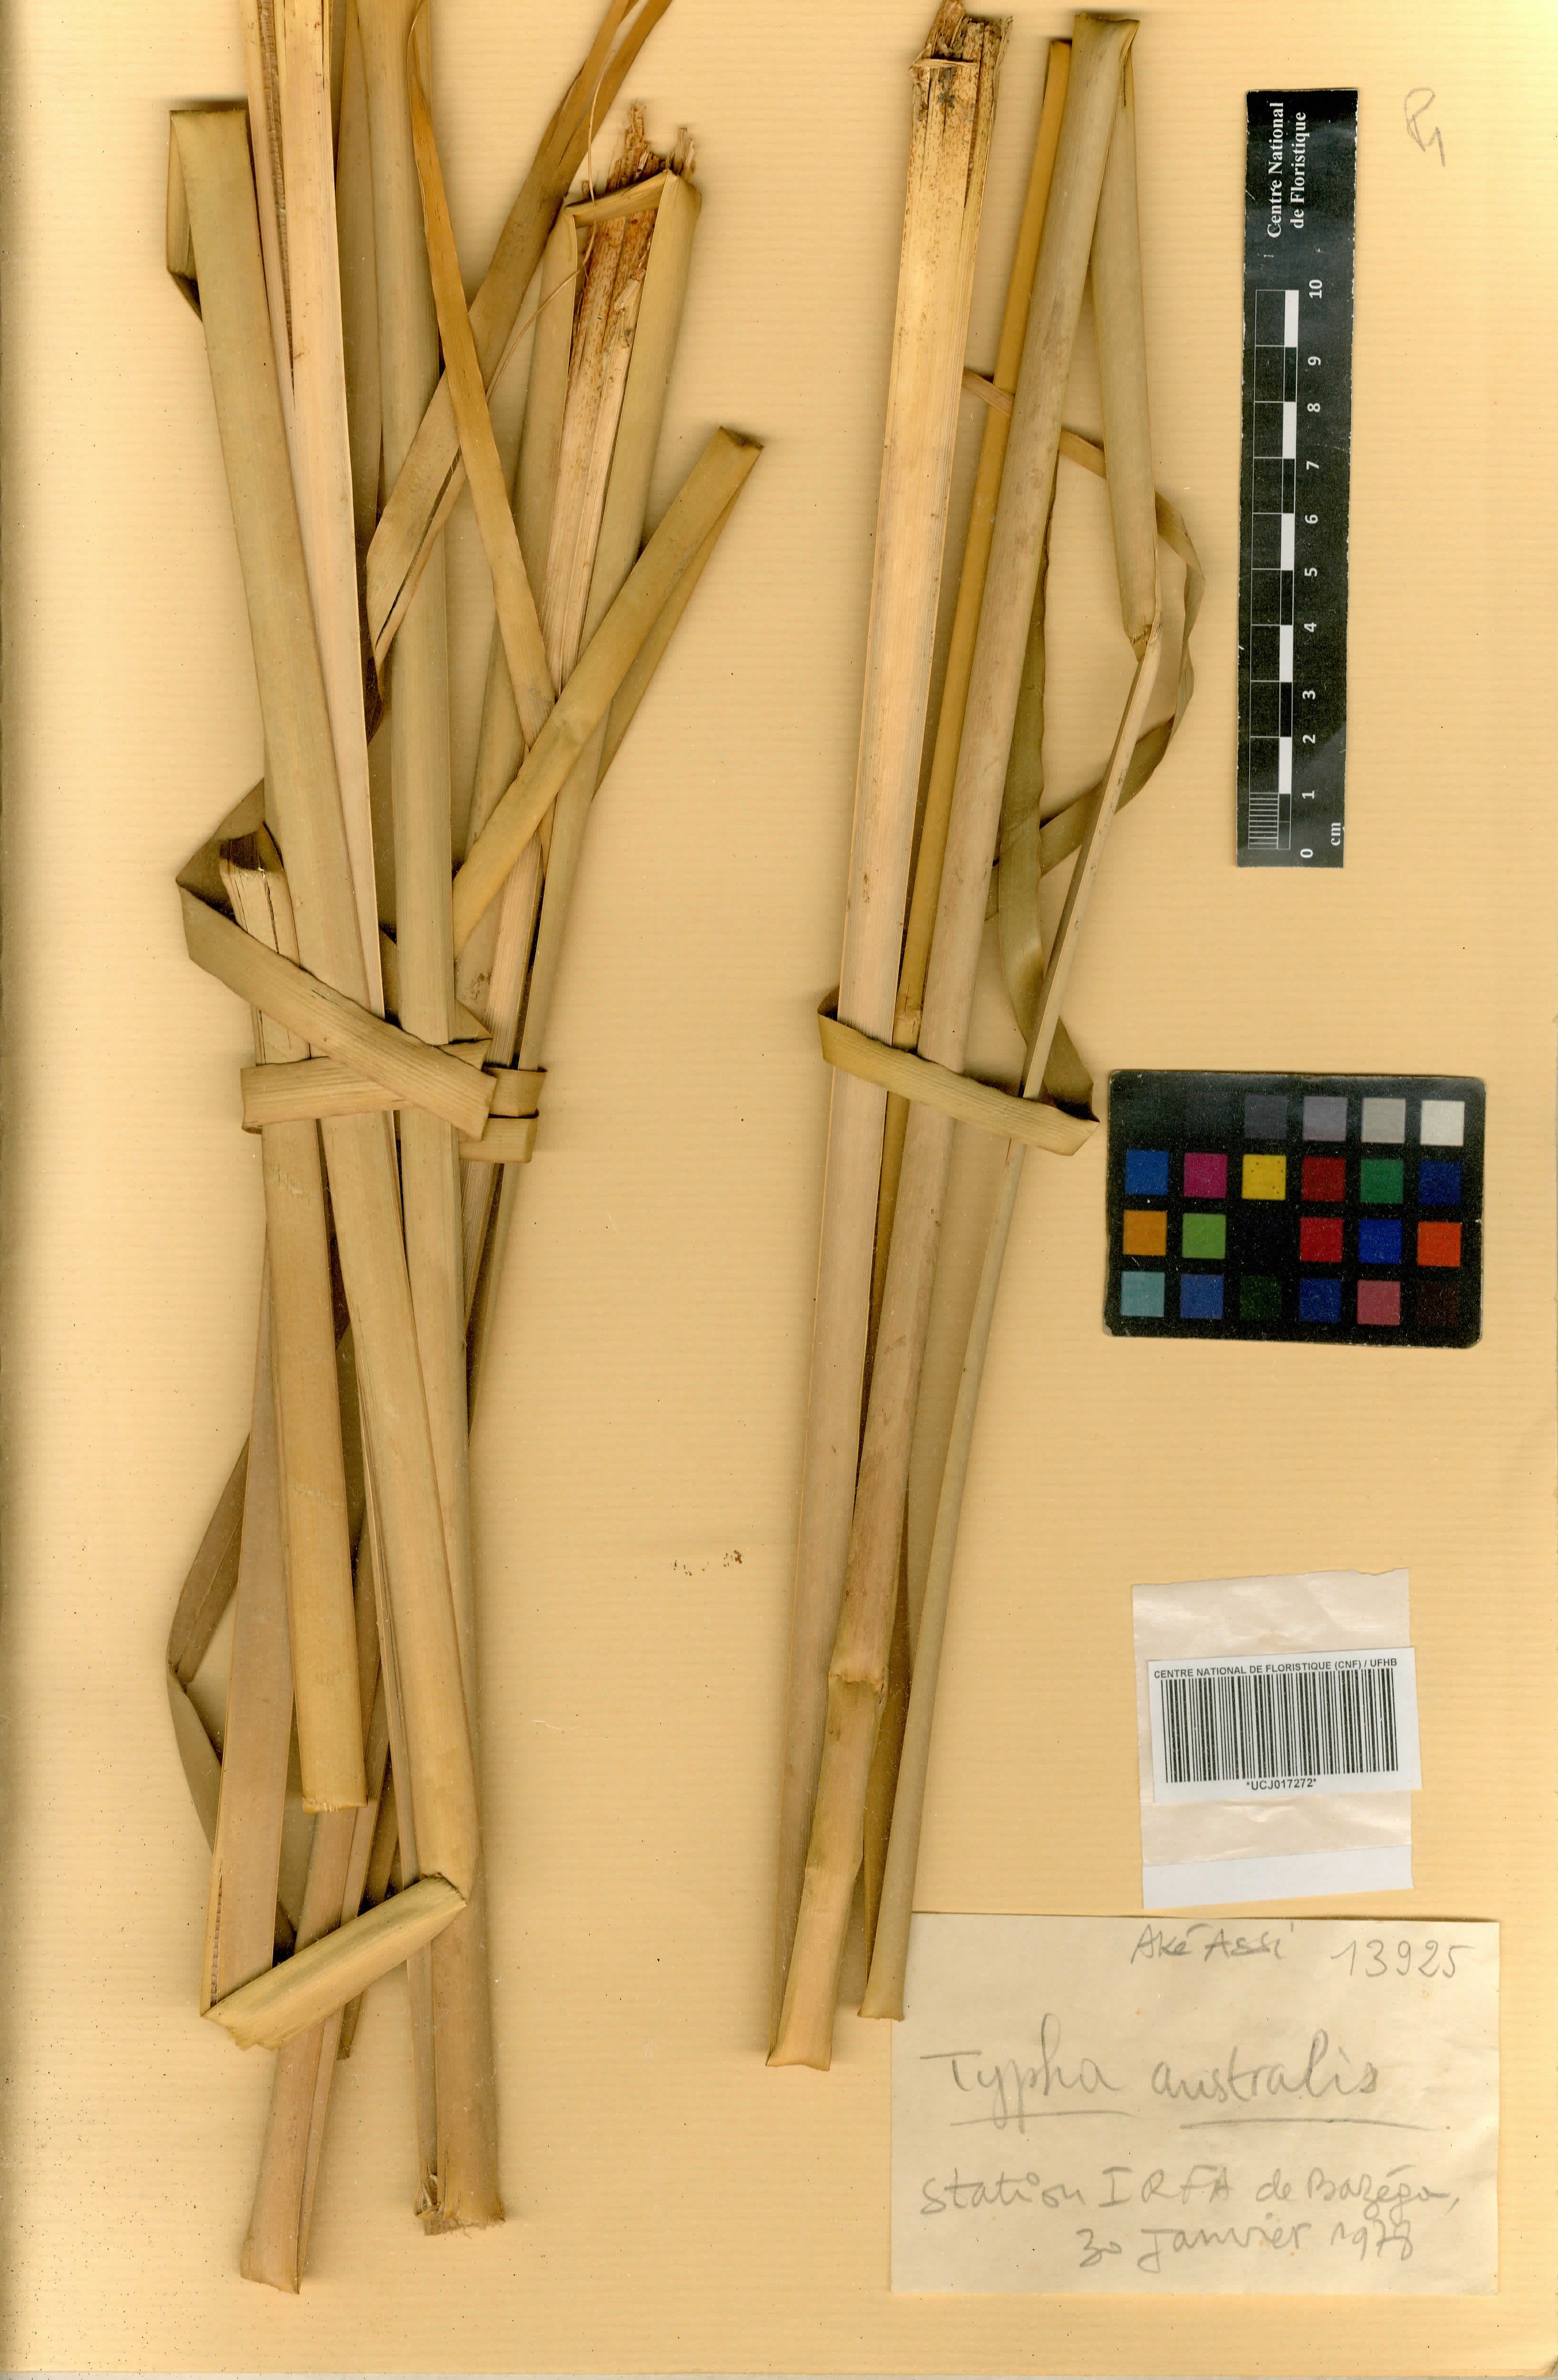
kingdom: Plantae
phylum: Tracheophyta
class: Liliopsida
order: Poales
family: Typhaceae
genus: Typha
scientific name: Typha domingensis
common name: Southern cattail
